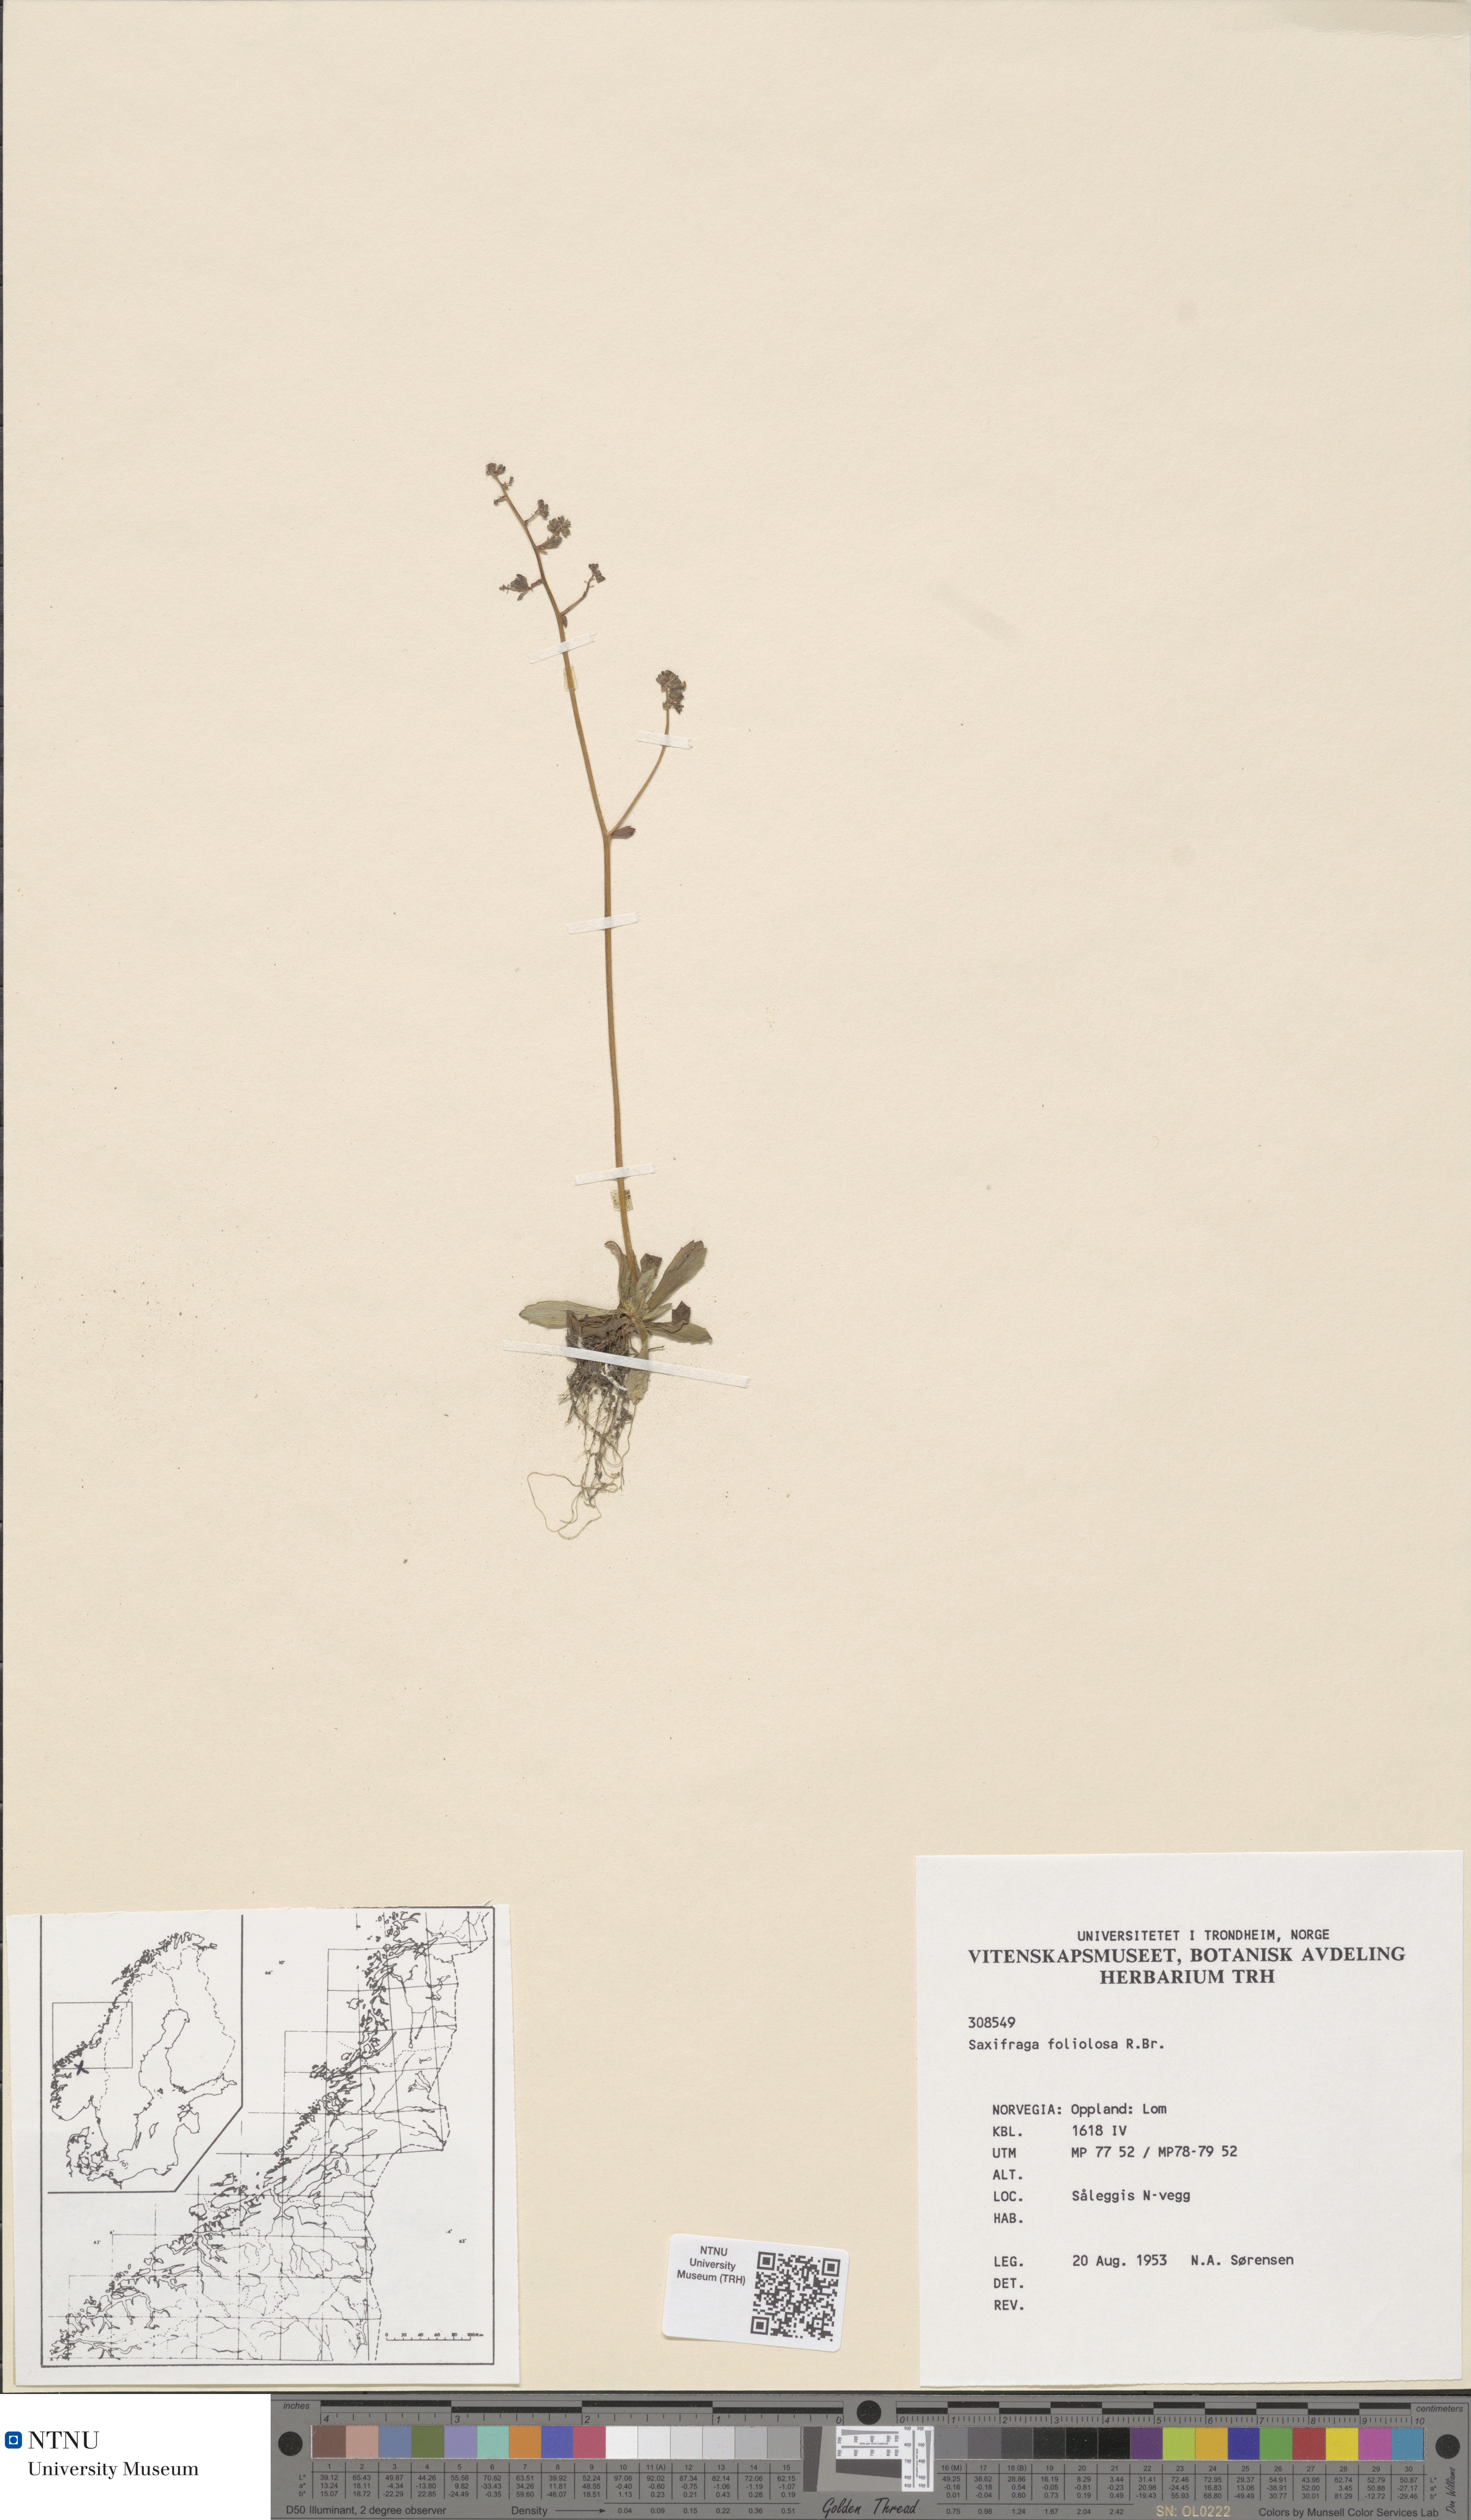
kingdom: Plantae
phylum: Tracheophyta
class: Magnoliopsida
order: Saxifragales
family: Saxifragaceae
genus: Micranthes
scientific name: Micranthes foliolosa
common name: Leafystem saxifrage
